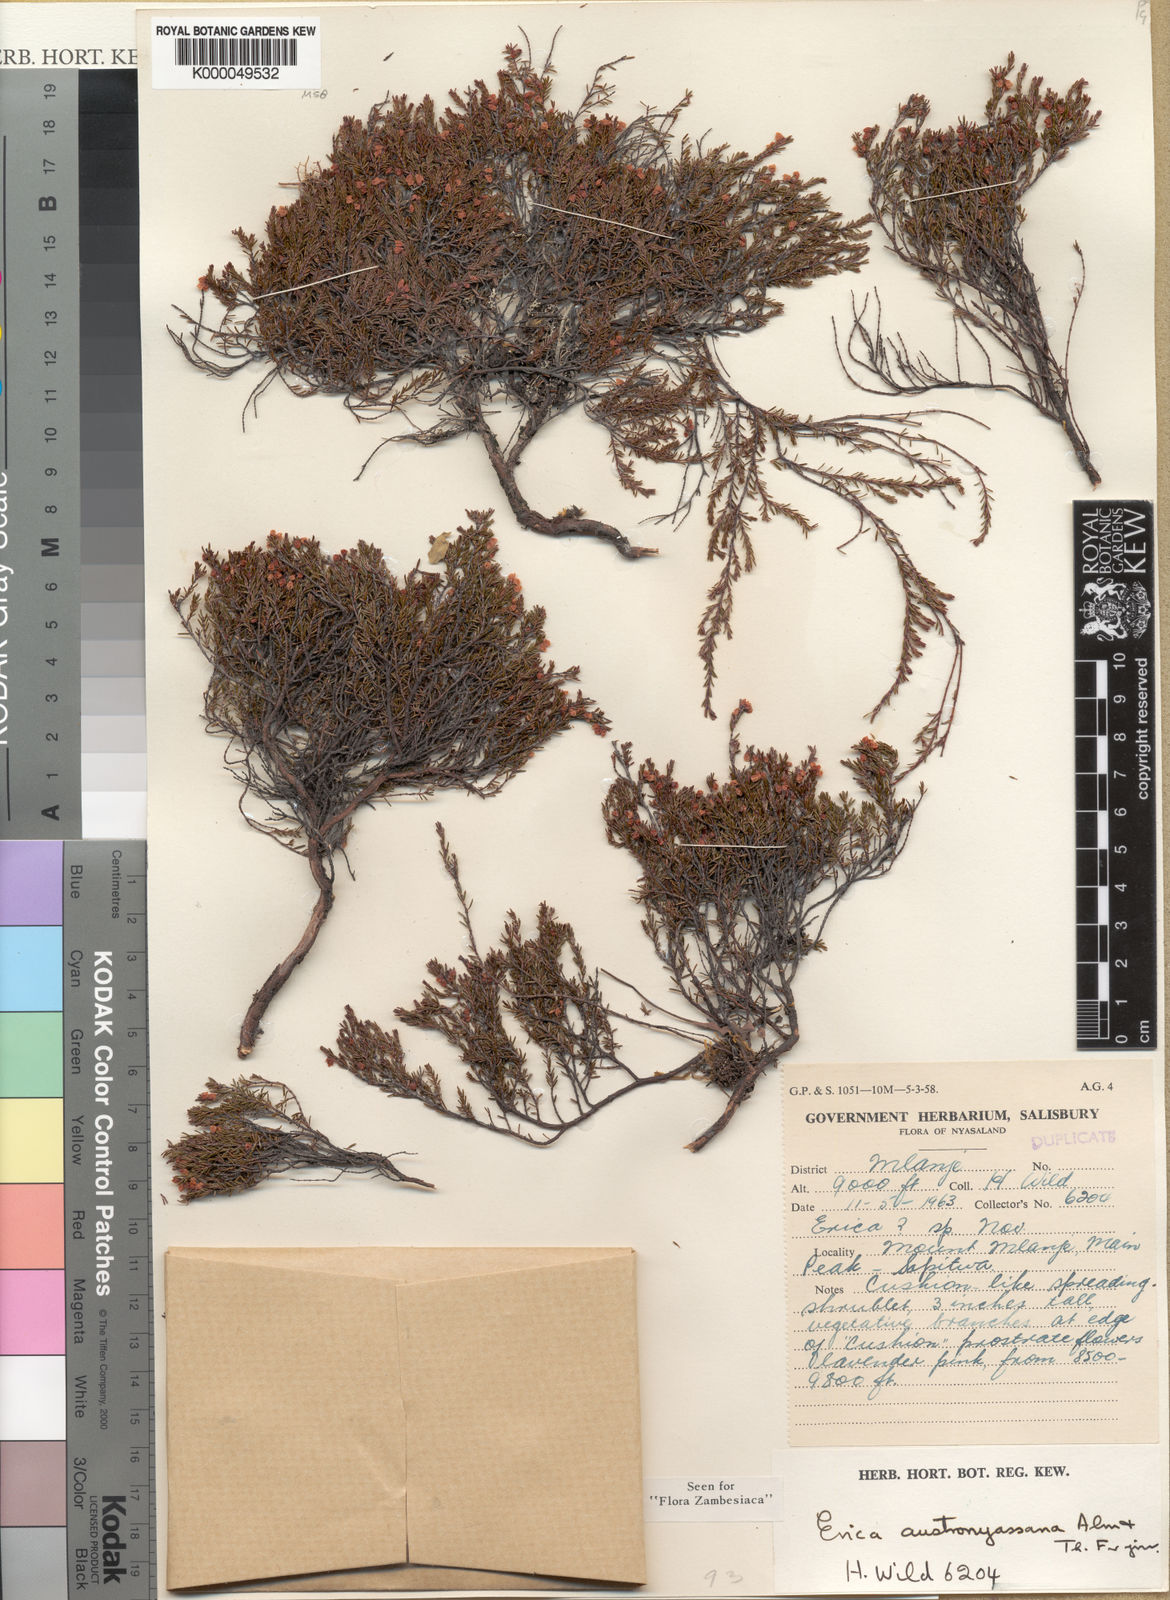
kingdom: Plantae
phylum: Tracheophyta
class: Magnoliopsida
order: Ericales
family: Ericaceae
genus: Erica
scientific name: Erica austronyassana
